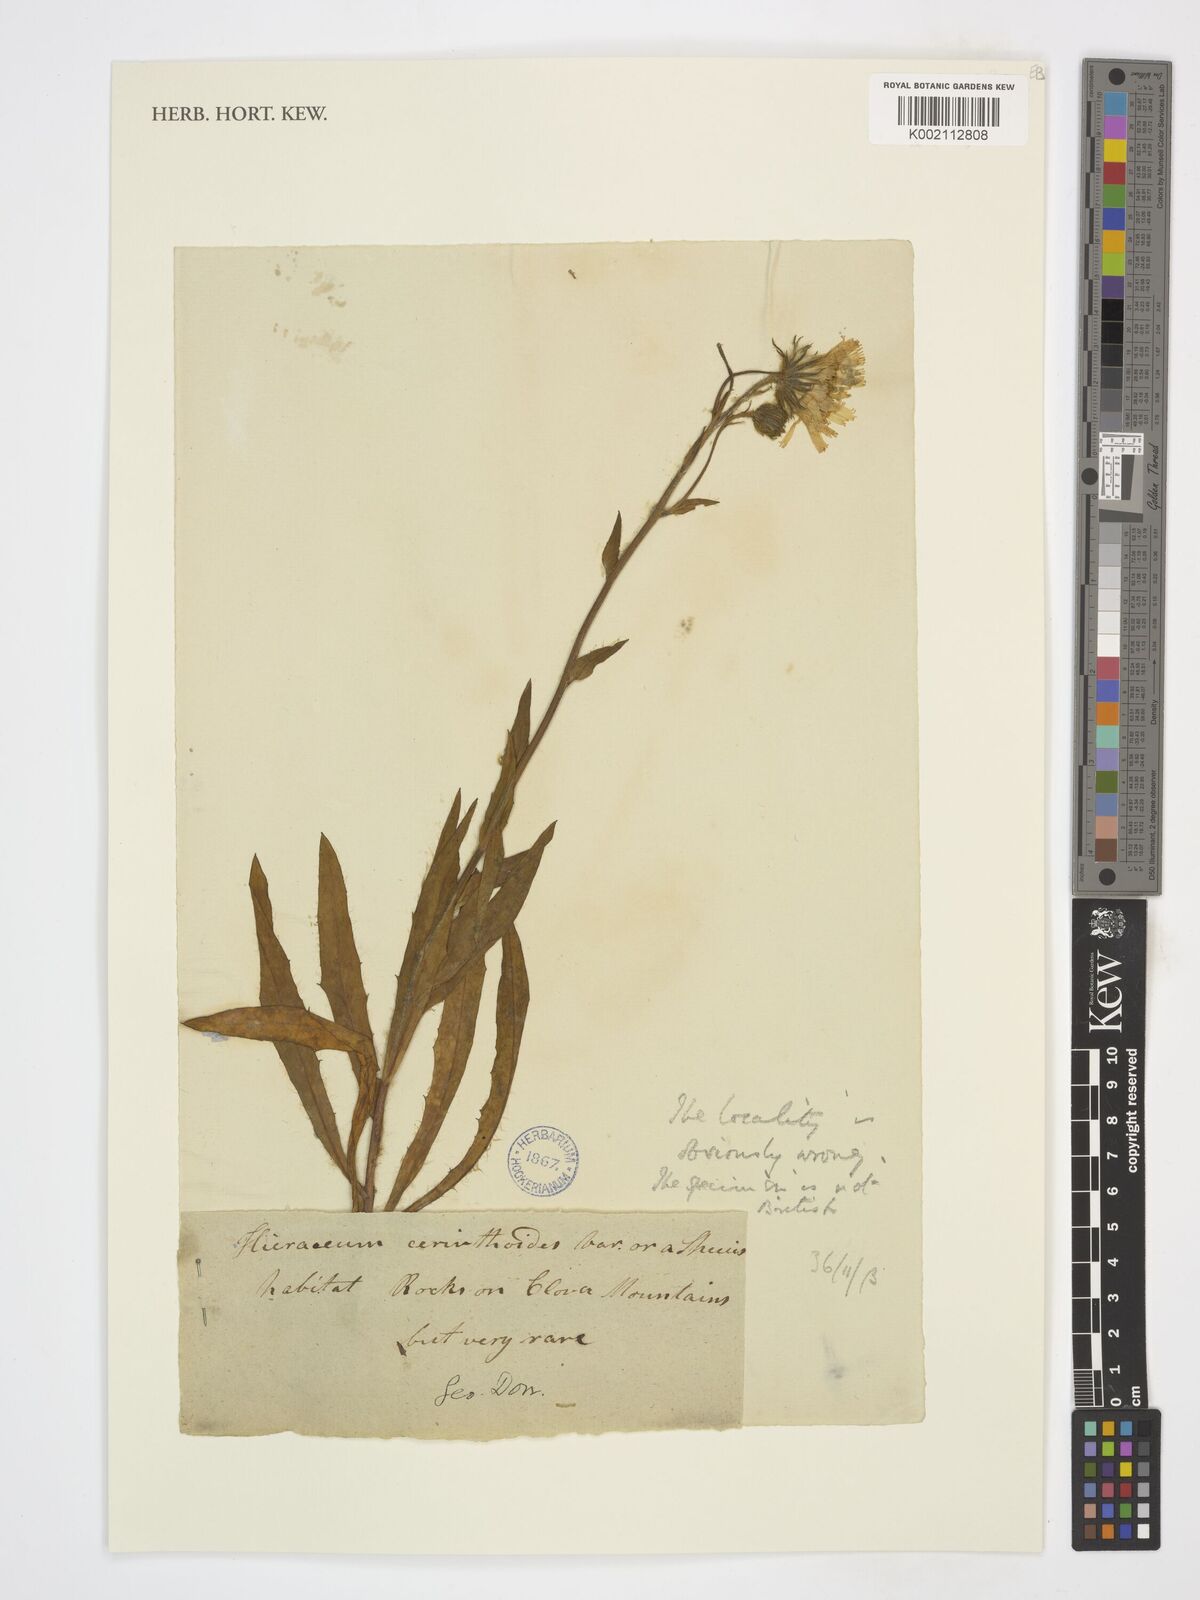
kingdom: Plantae
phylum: Tracheophyta
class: Magnoliopsida
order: Asterales
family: Asteraceae
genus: Hieracium
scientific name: Hieracium
